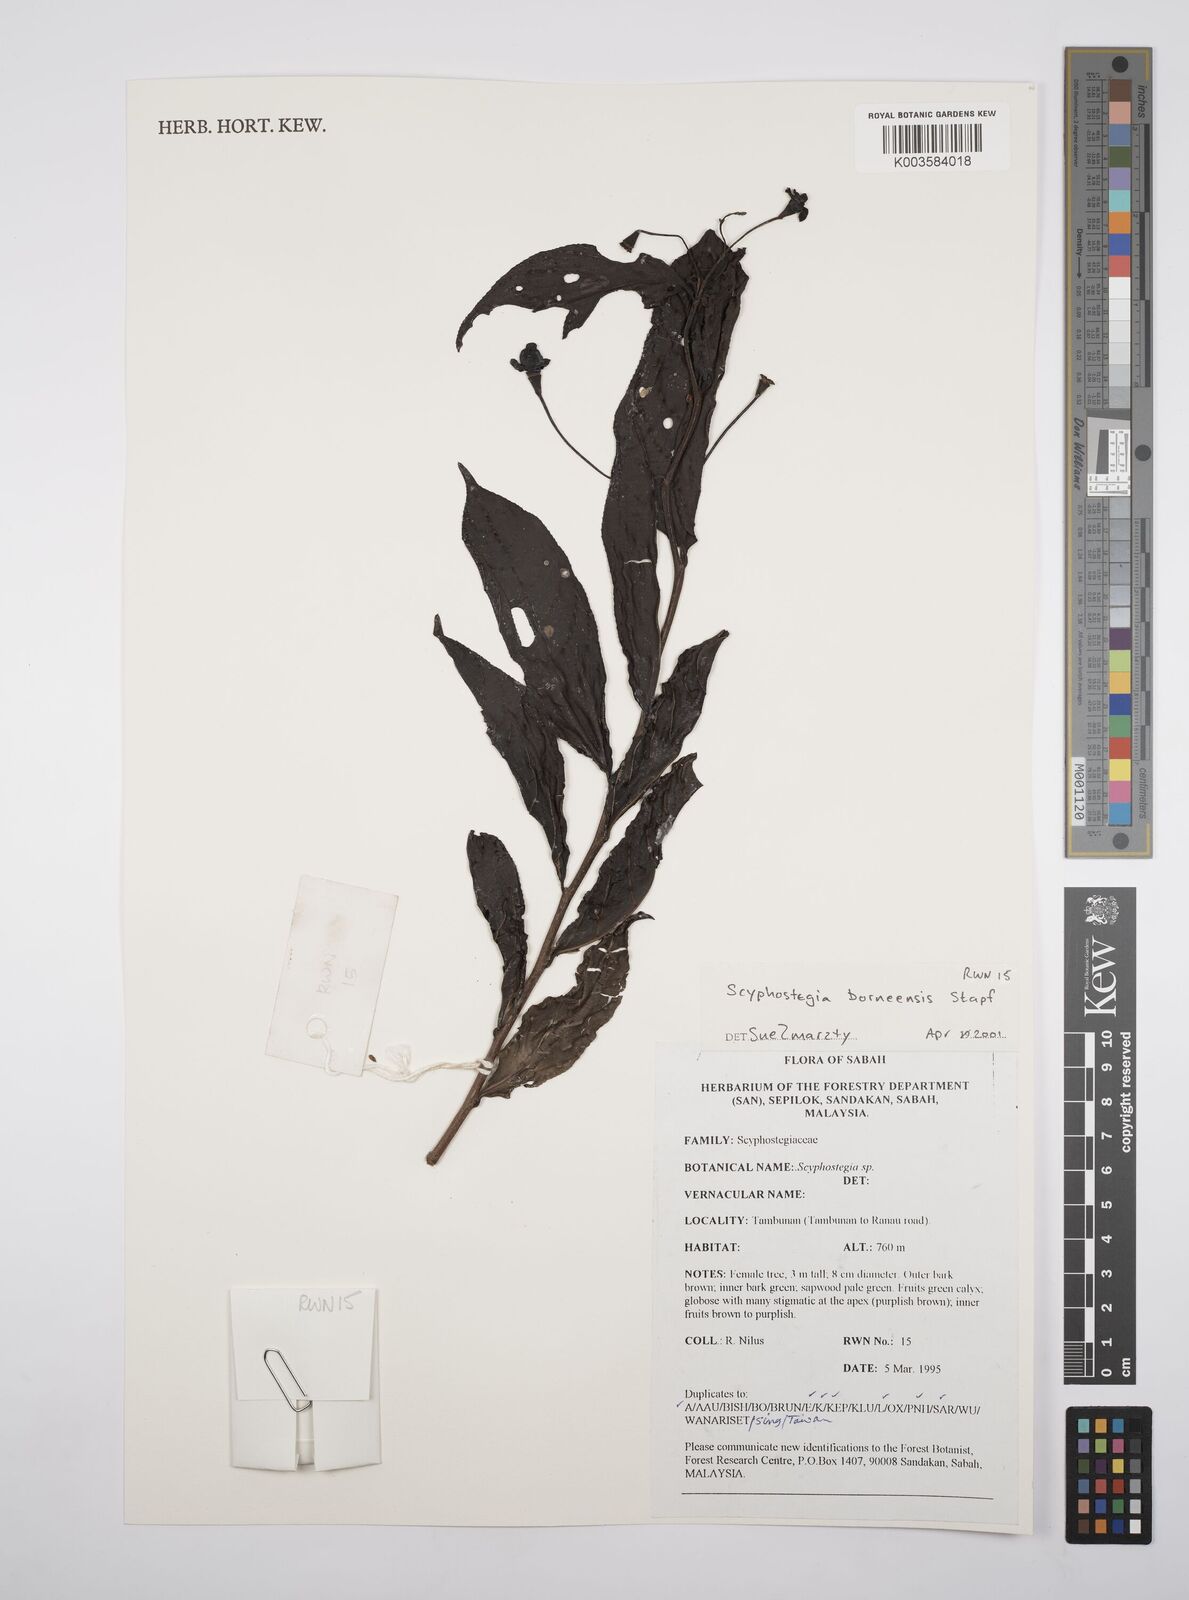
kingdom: Plantae
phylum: Tracheophyta
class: Magnoliopsida
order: Malpighiales
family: Salicaceae
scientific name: Salicaceae
